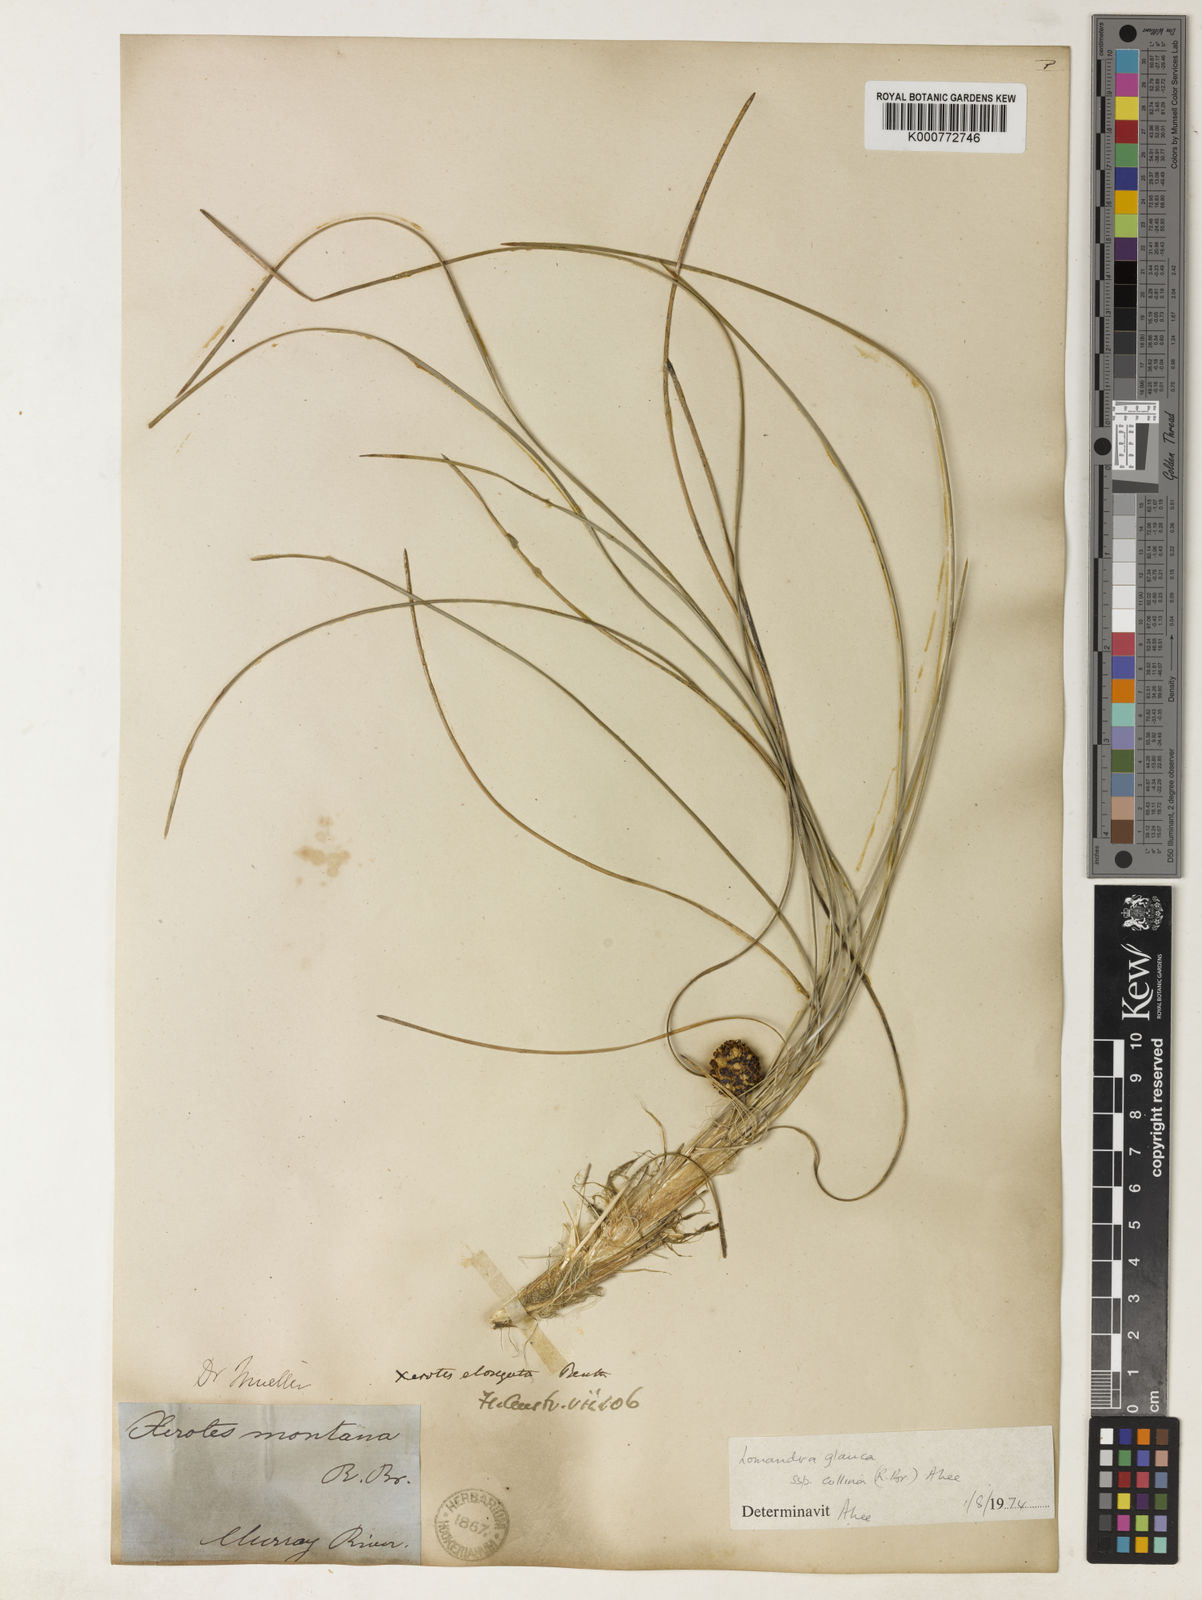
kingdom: Plantae
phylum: Tracheophyta
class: Liliopsida
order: Asparagales
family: Asparagaceae
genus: Lomandra
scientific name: Lomandra elongata
